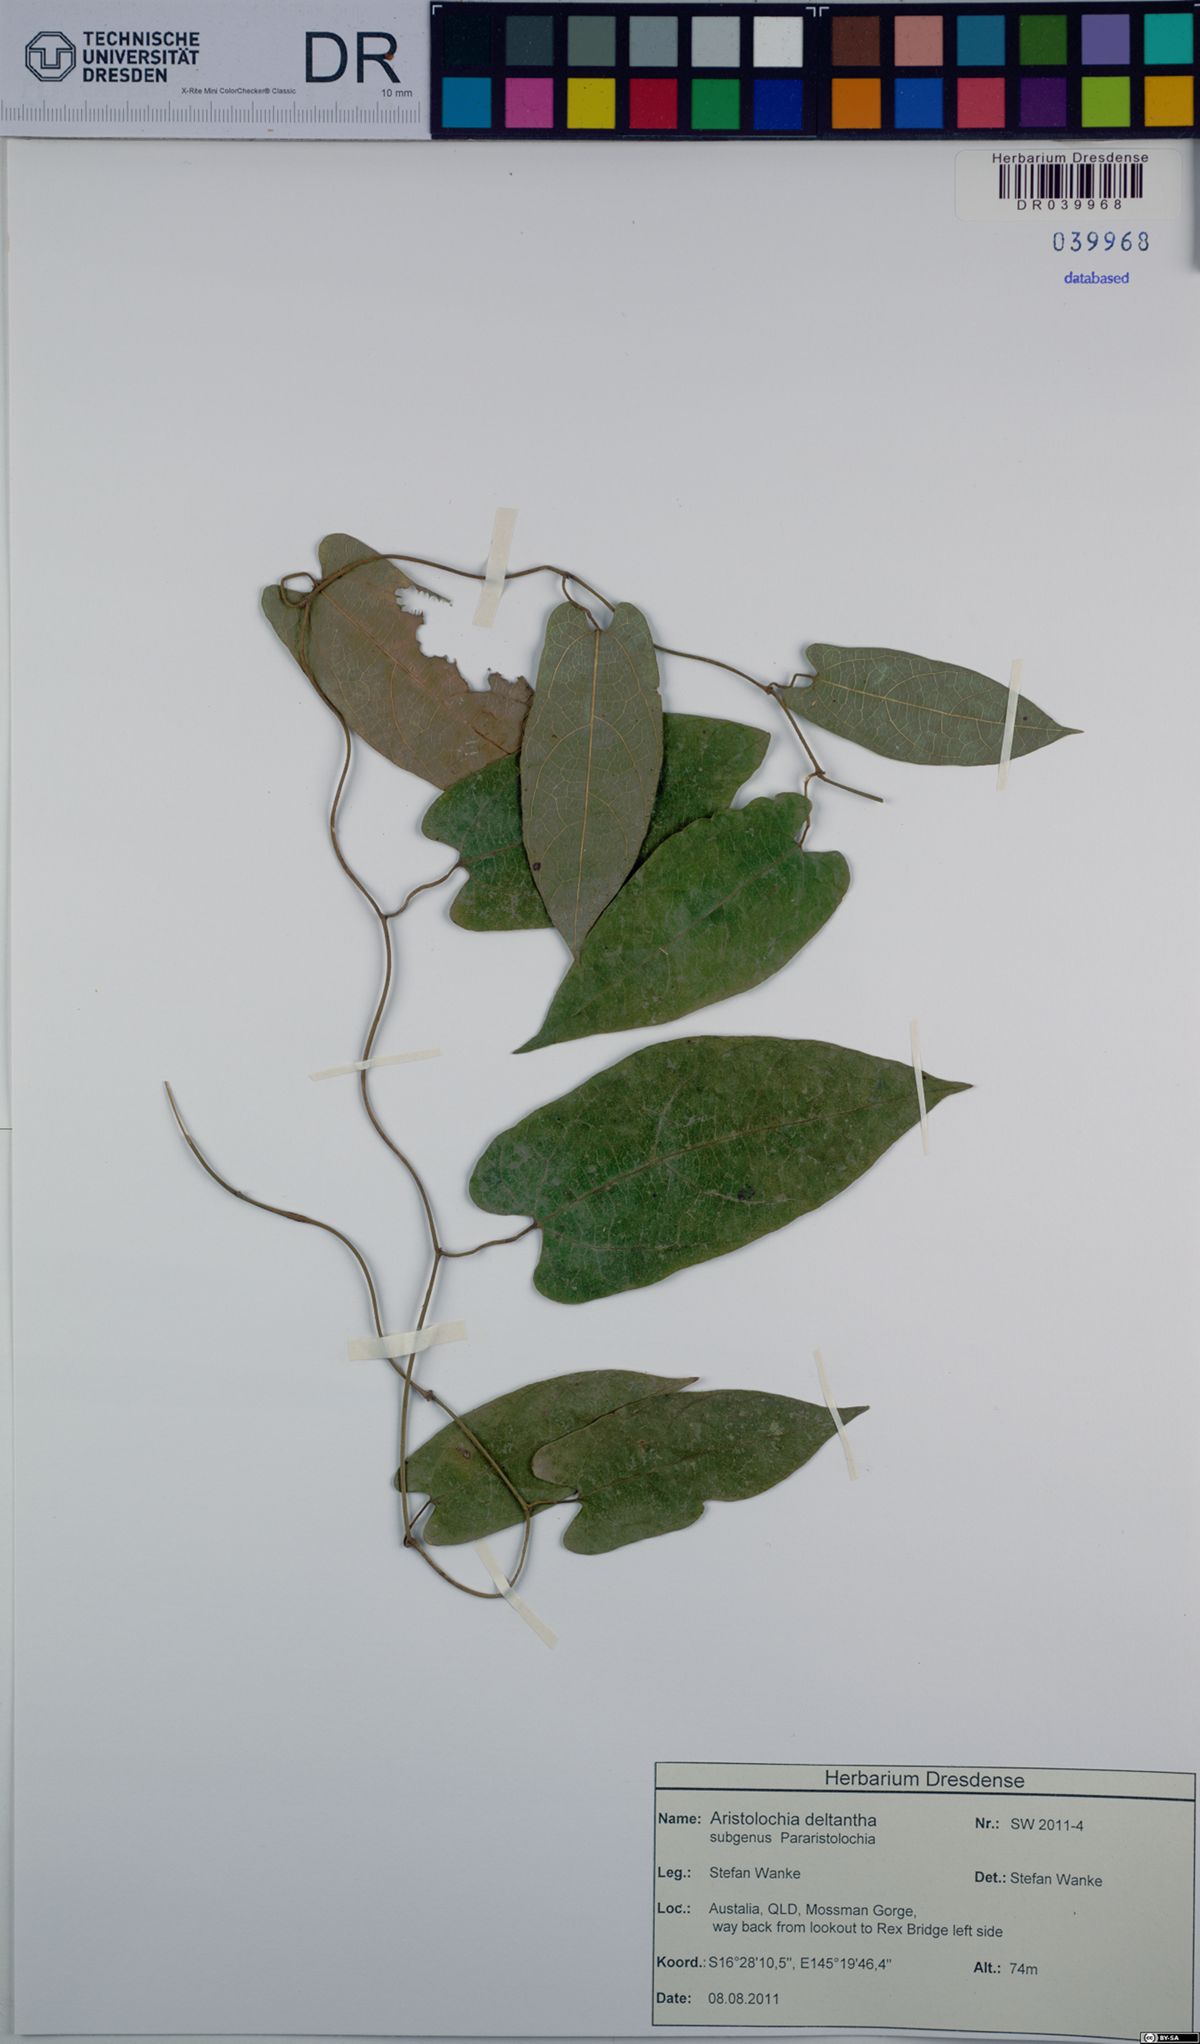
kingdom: Plantae
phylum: Tracheophyta
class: Magnoliopsida
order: Piperales
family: Aristolochiaceae
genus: Aristolochia
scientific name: Aristolochia deltantha
